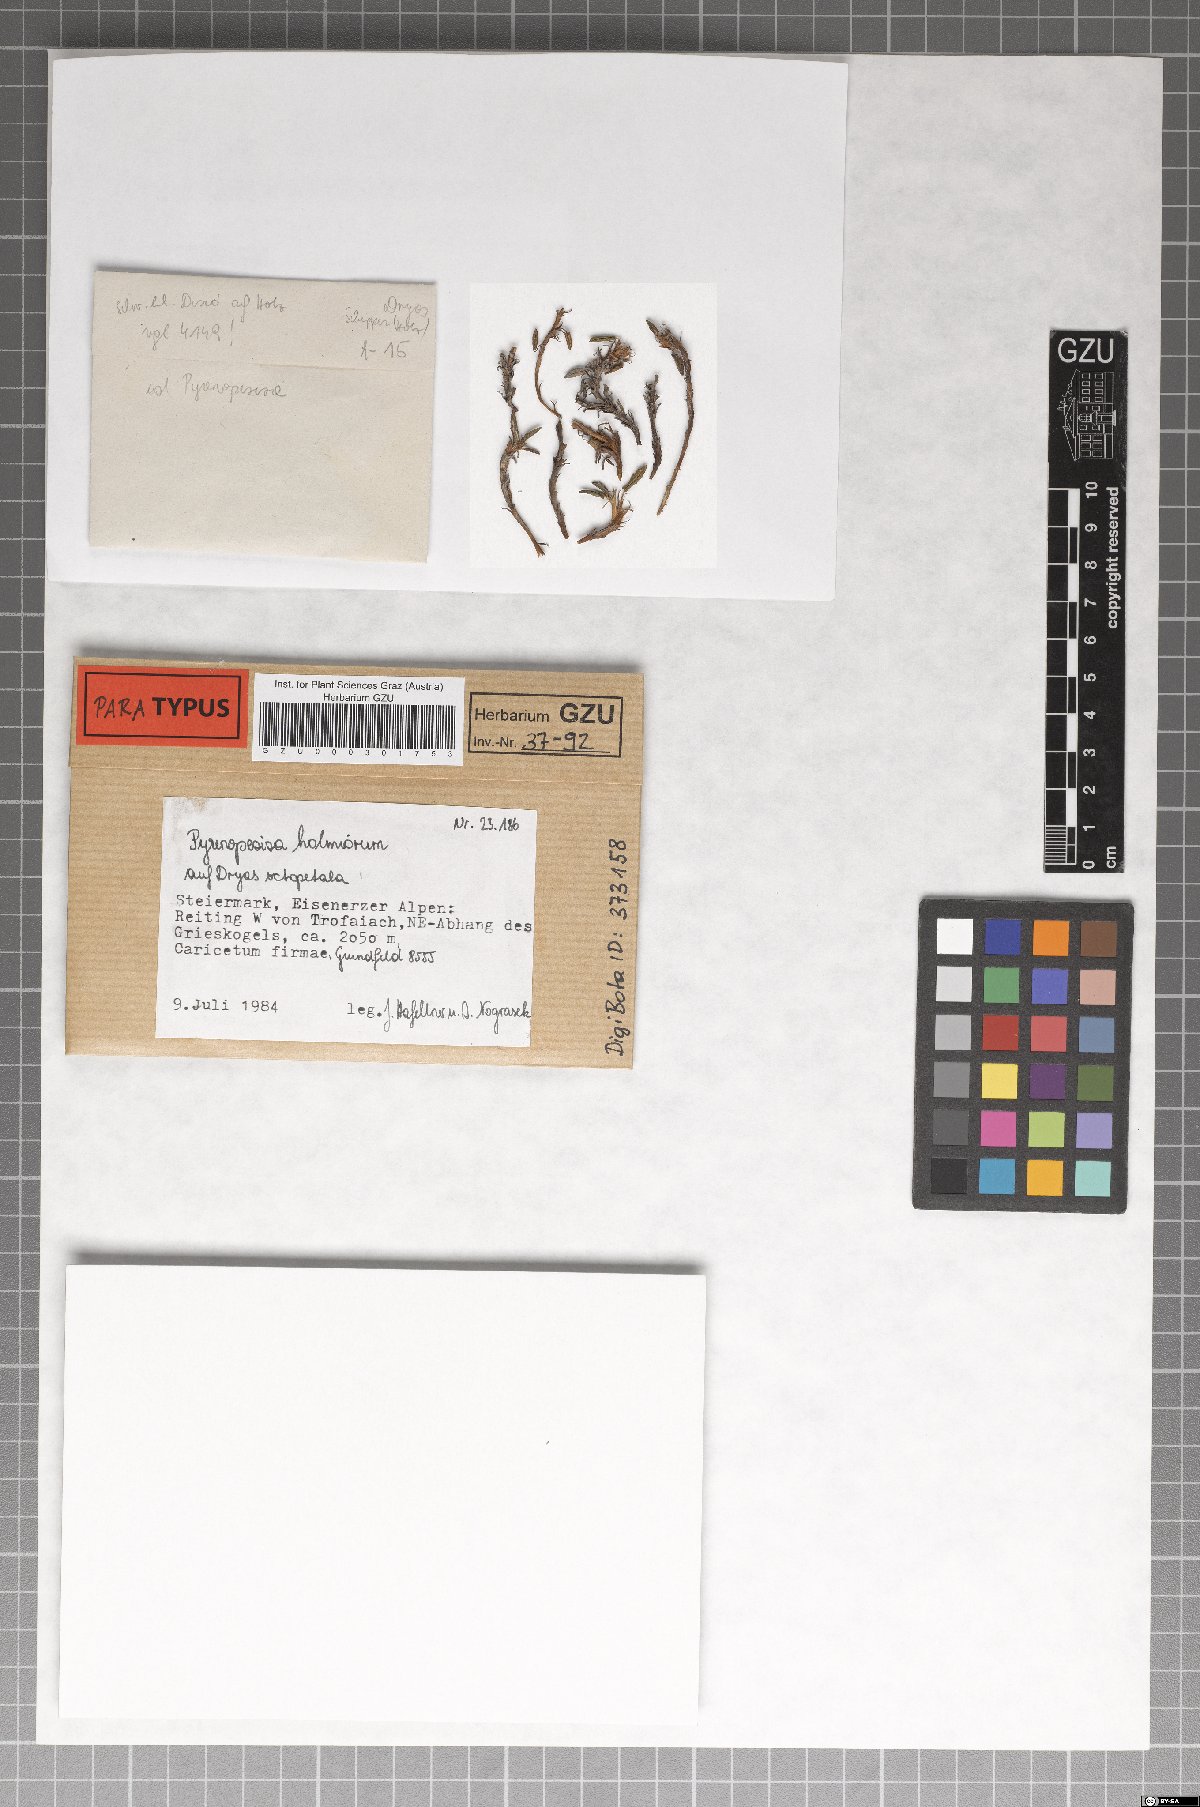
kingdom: Fungi
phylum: Ascomycota
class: Leotiomycetes
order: Helotiales
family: Ploettnerulaceae
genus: Pyrenopeziza
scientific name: Pyrenopeziza holmiorum
